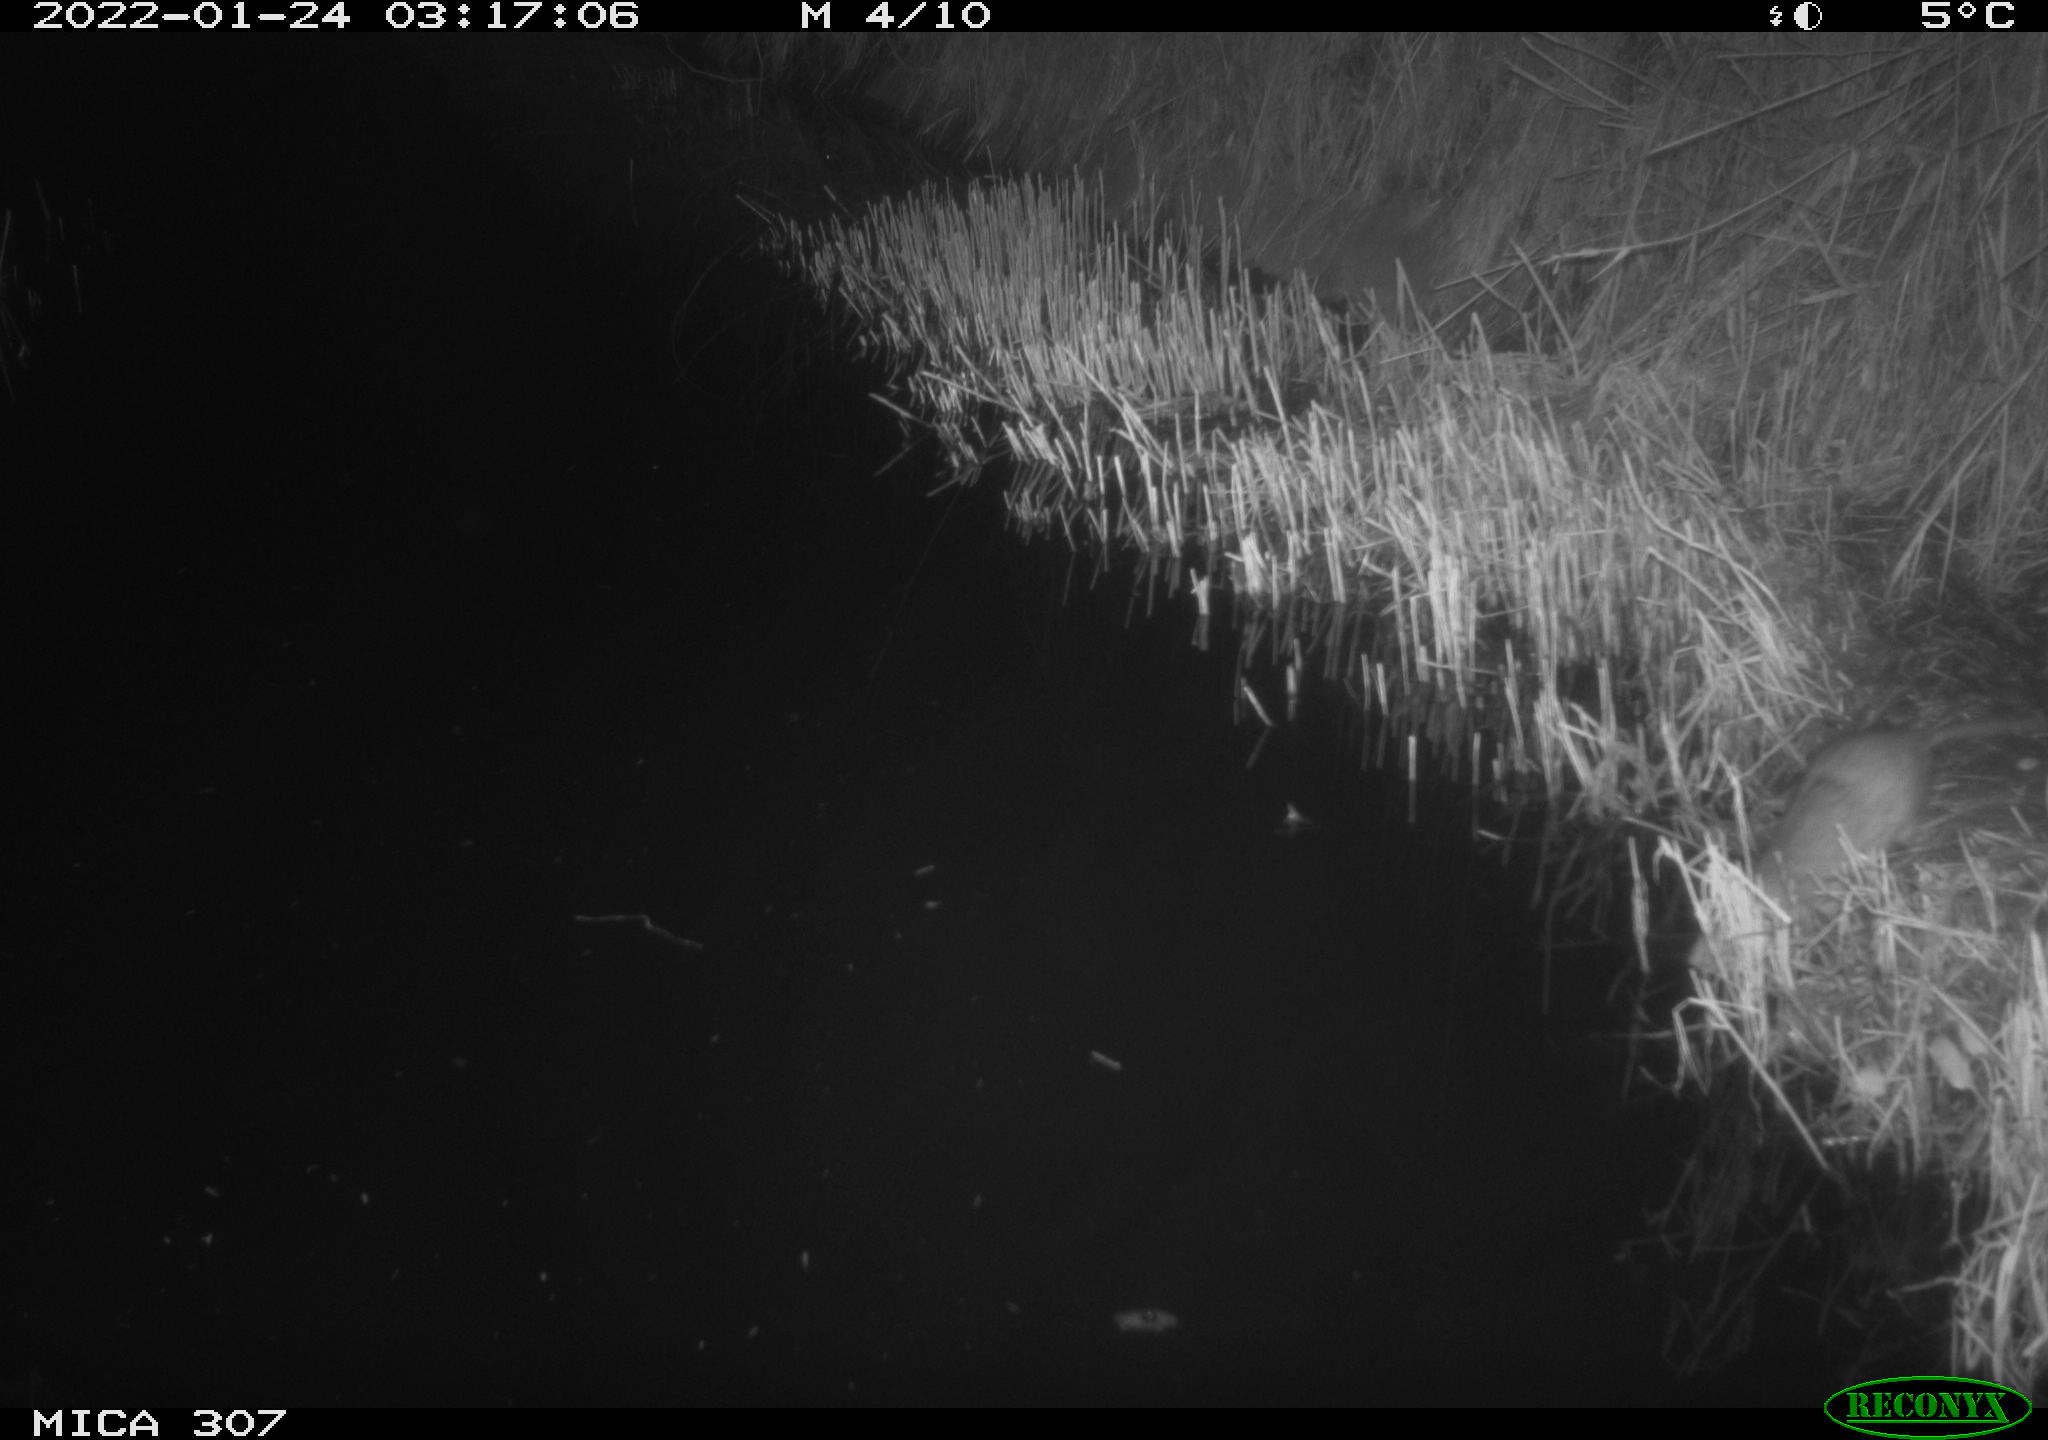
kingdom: Animalia
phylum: Chordata
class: Mammalia
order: Rodentia
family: Muridae
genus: Rattus
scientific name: Rattus norvegicus
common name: Brown rat
